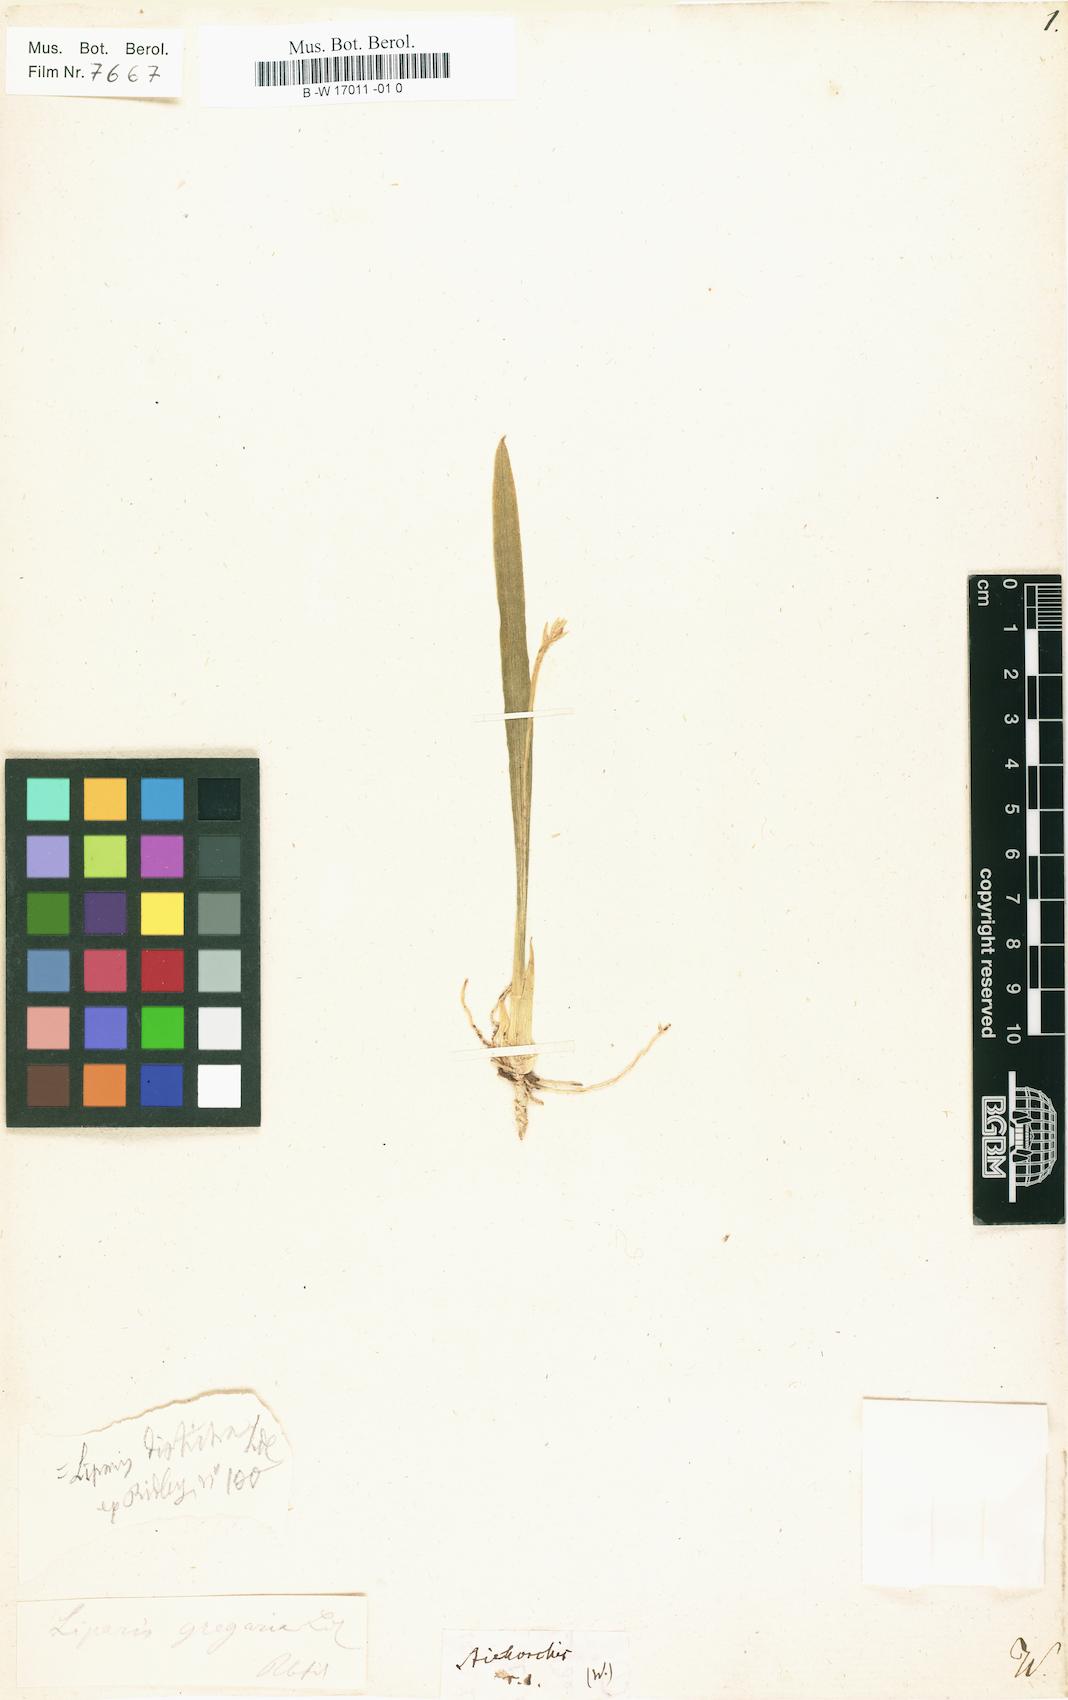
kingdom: Plantae
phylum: Tracheophyta
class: Liliopsida
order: Asparagales
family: Orchidaceae
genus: Stichorchis
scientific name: Stichorchis
